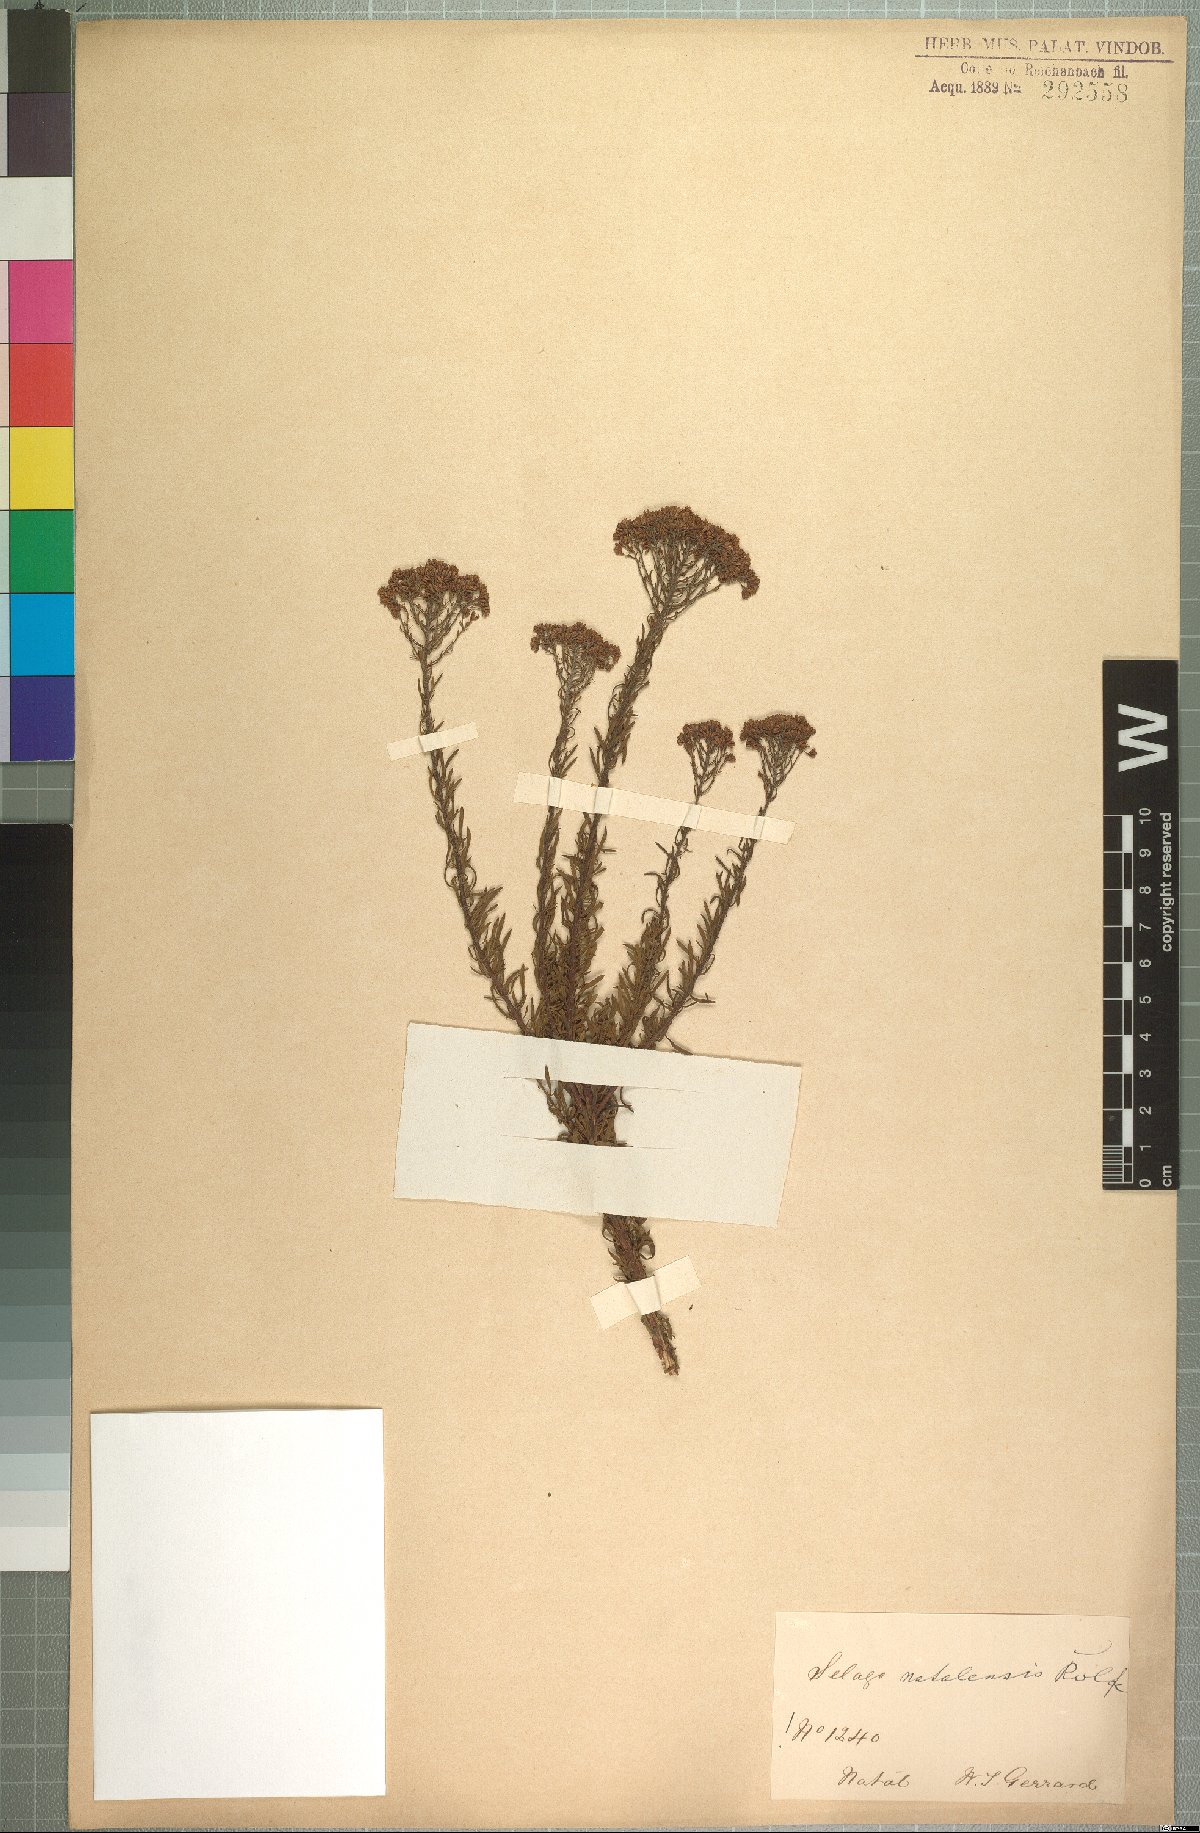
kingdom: Plantae
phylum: Tracheophyta
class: Magnoliopsida
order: Lamiales
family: Scrophulariaceae
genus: Tetraselago
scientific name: Tetraselago natalensis
